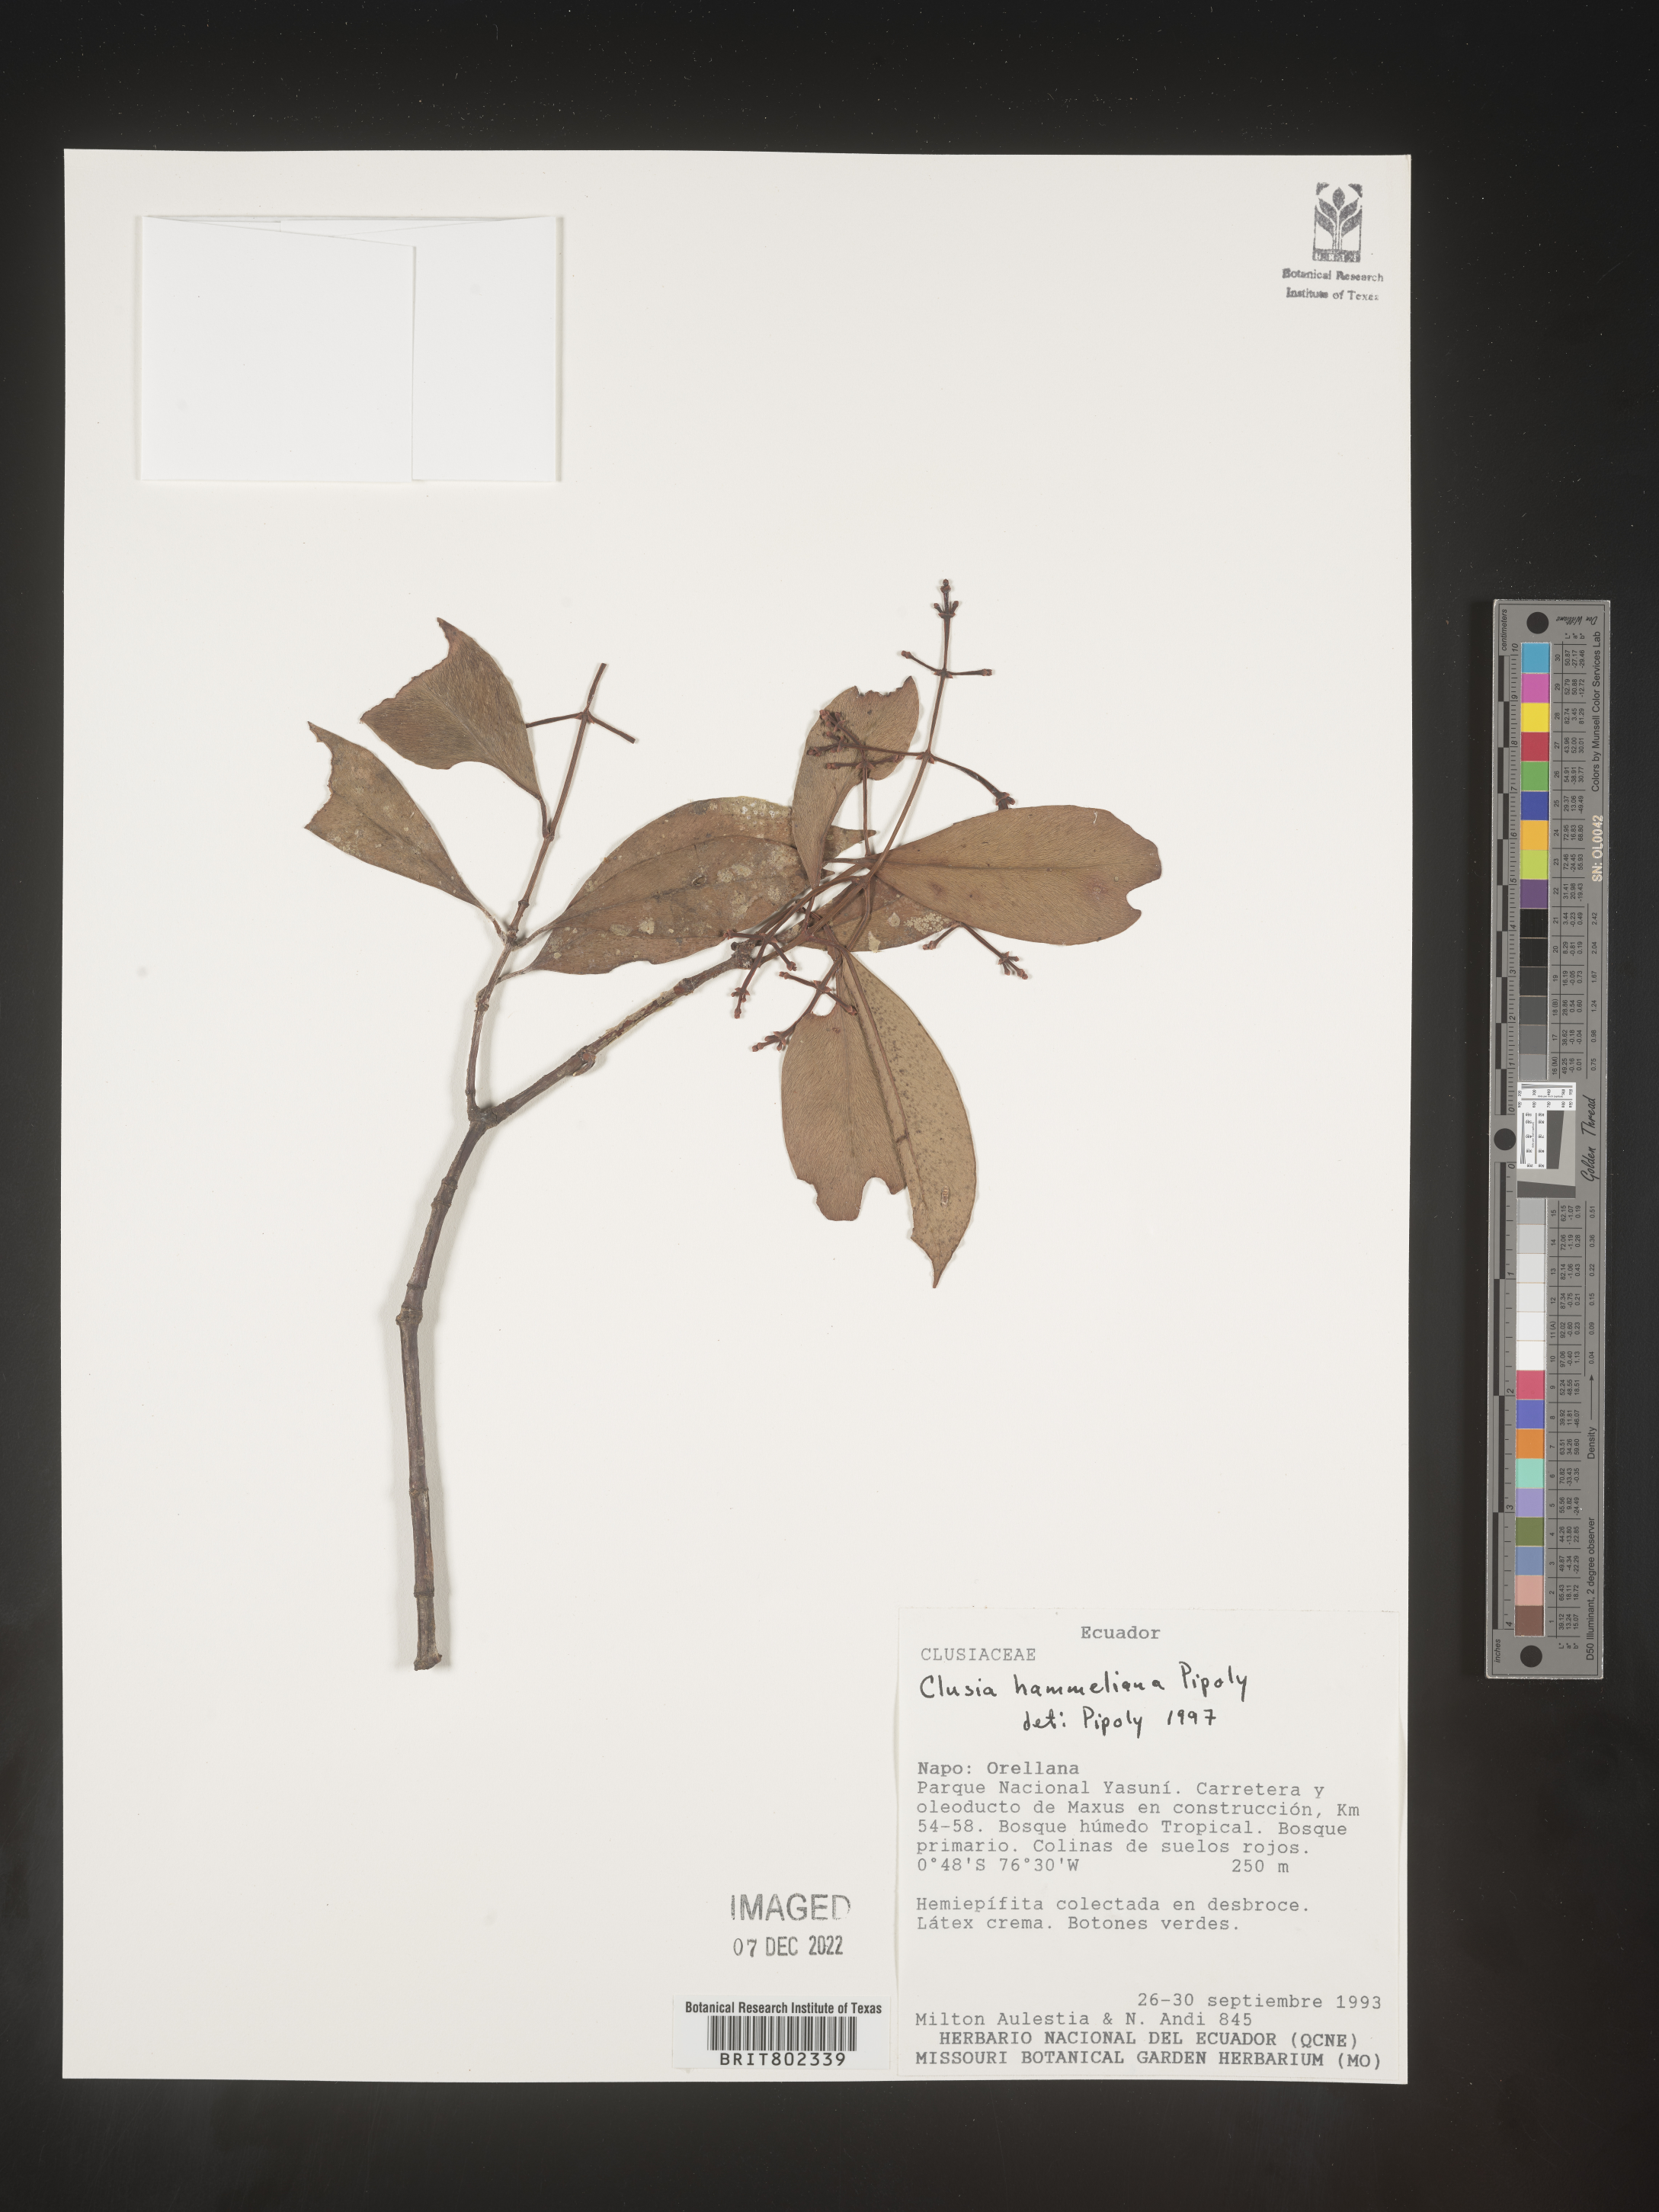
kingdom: Plantae
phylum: Tracheophyta
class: Magnoliopsida
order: Malpighiales
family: Clusiaceae
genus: Clusia
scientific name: Clusia hammeliana
